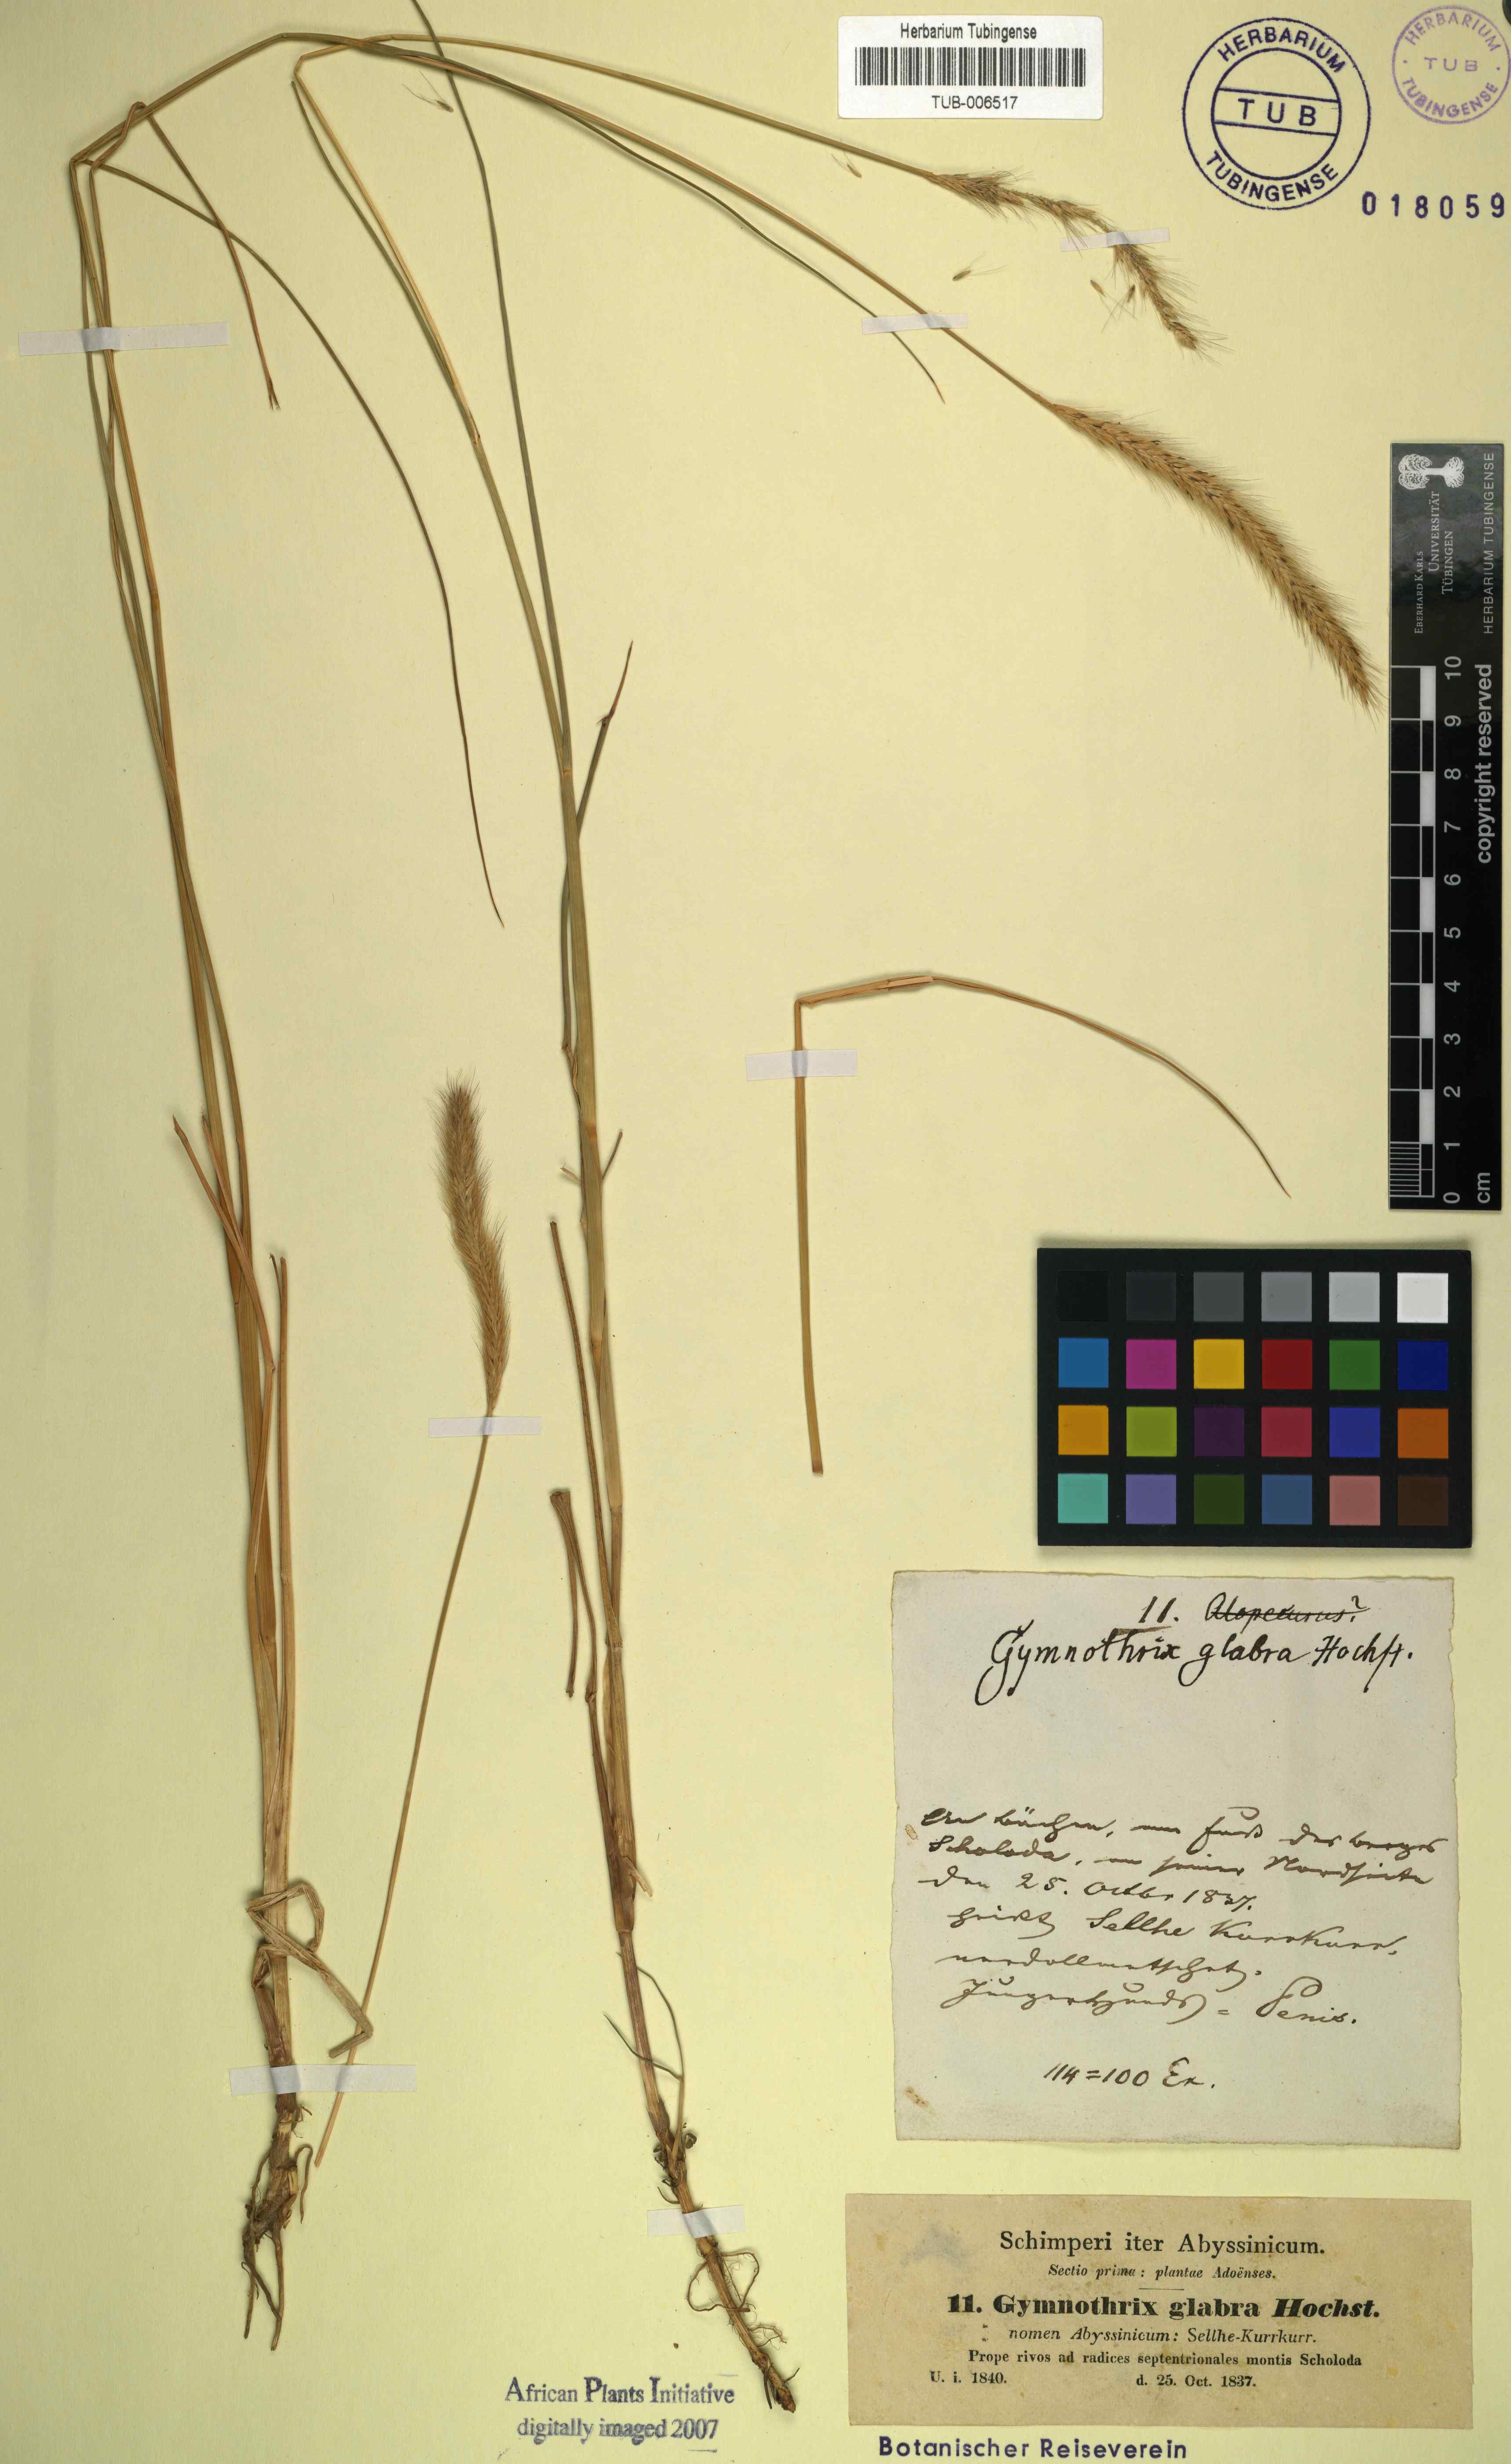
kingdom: Plantae
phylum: Tracheophyta
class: Liliopsida
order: Poales
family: Poaceae
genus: Cenchrus
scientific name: Cenchrus geniculatus
